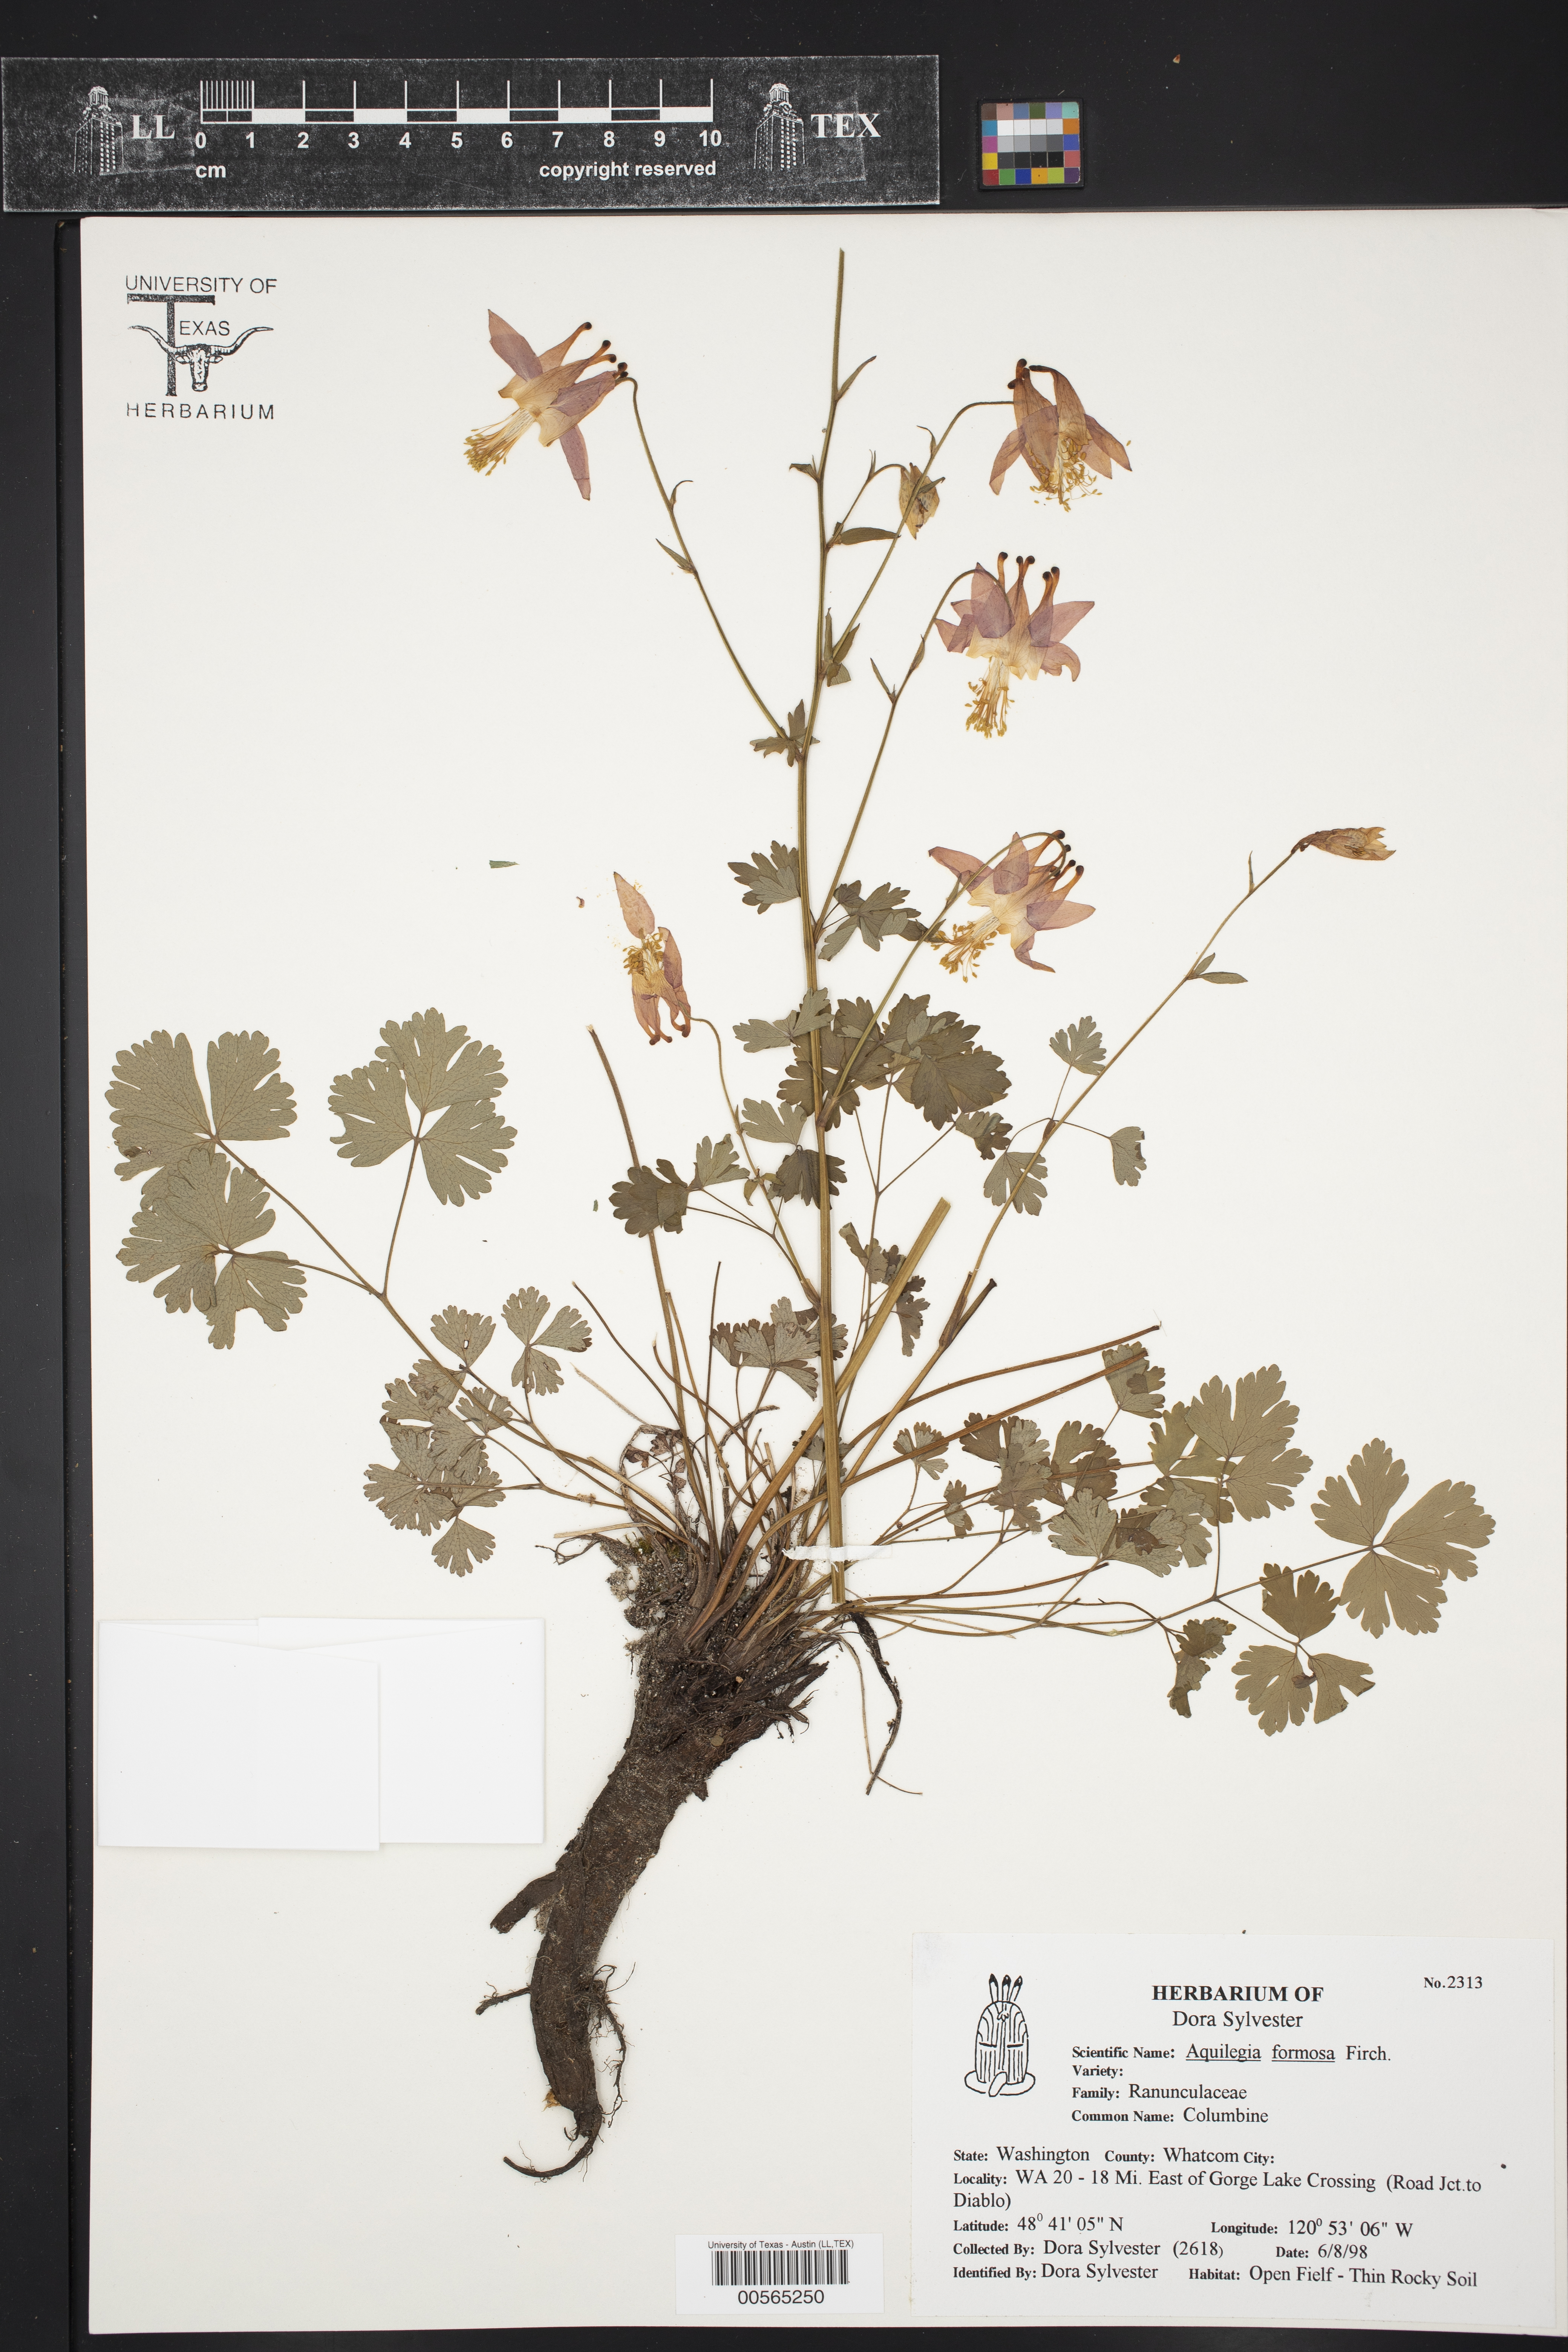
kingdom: Plantae
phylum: Tracheophyta
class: Magnoliopsida
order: Ranunculales
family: Ranunculaceae
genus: Aquilegia
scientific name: Aquilegia formosa
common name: Sitka columbine
